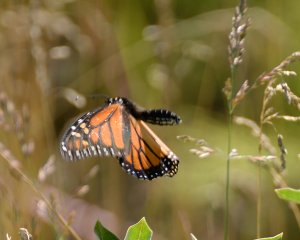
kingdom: Animalia
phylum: Arthropoda
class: Insecta
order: Lepidoptera
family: Nymphalidae
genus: Danaus
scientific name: Danaus plexippus
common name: Monarch
